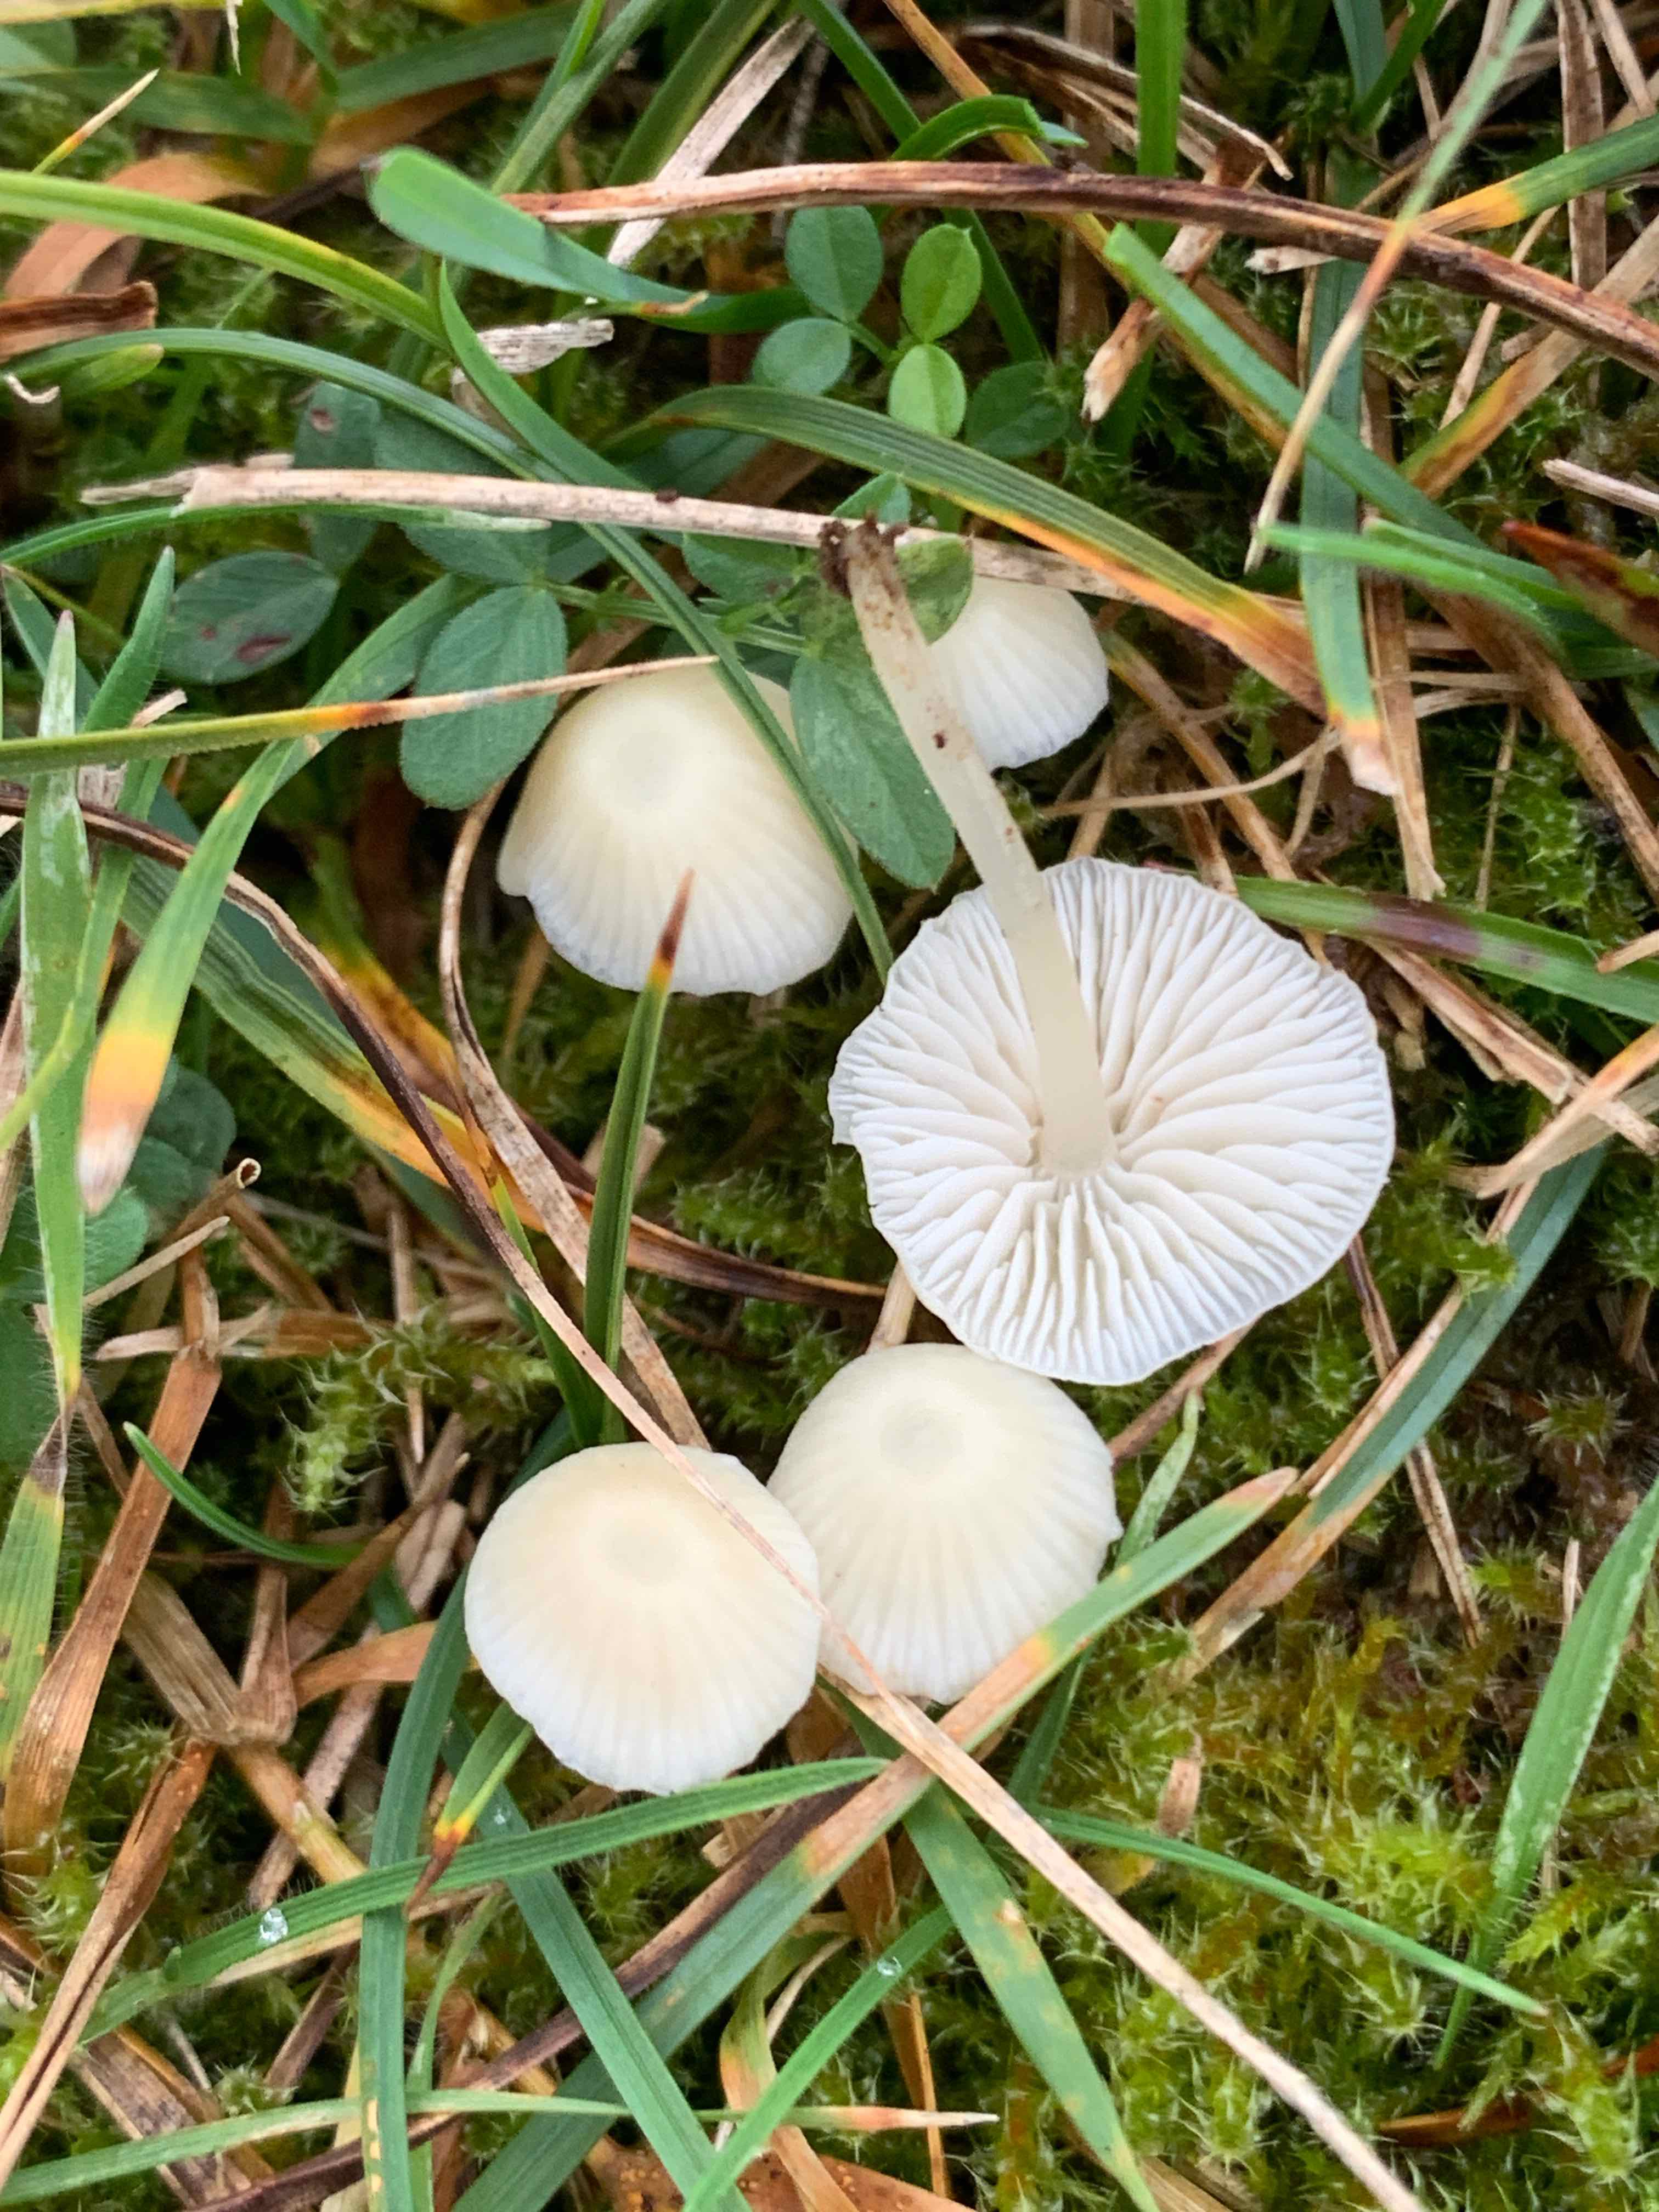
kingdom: Fungi
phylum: Basidiomycota
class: Agaricomycetes
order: Agaricales
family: Mycenaceae
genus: Atheniella
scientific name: Atheniella flavoalba
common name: gulhvid huesvamp
